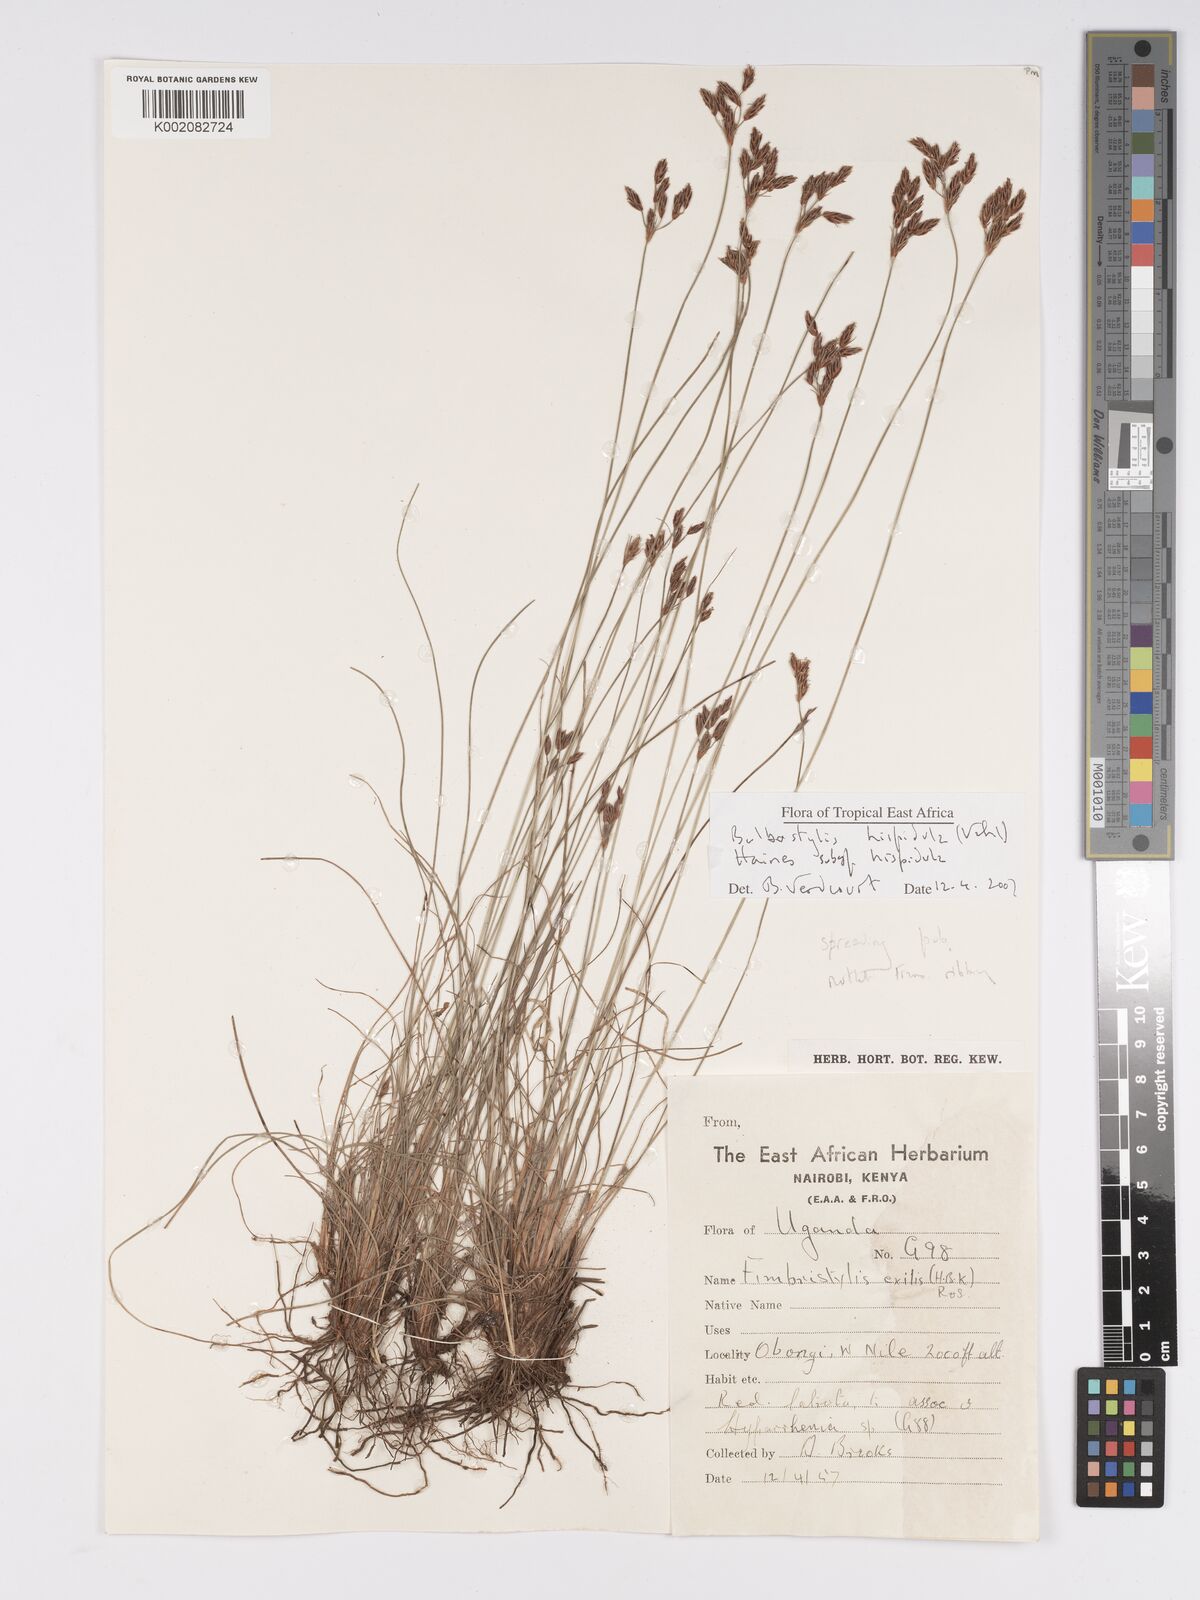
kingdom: Plantae
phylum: Tracheophyta
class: Liliopsida
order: Poales
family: Cyperaceae
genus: Bulbostylis
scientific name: Bulbostylis hispidula
